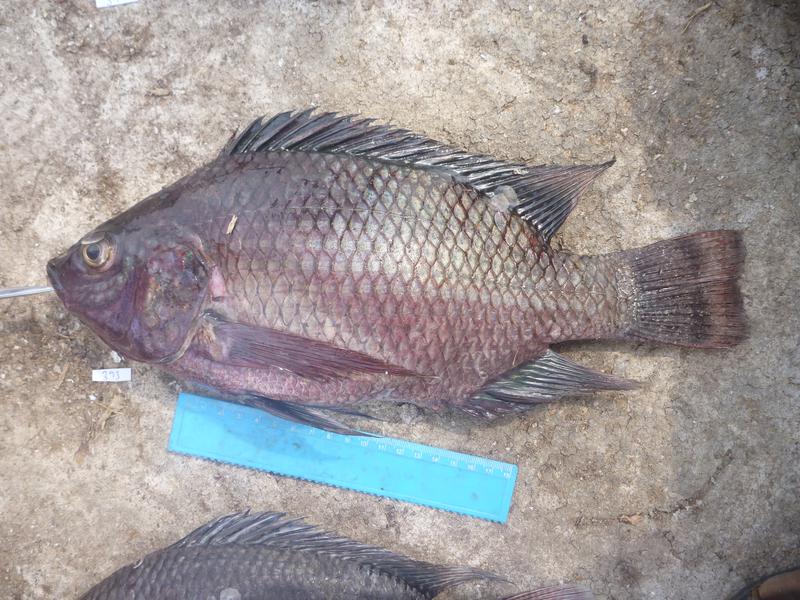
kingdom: Animalia
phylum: Chordata
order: Perciformes
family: Cichlidae
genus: Oreochromis
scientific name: Oreochromis niloticus
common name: Nile tilapia
